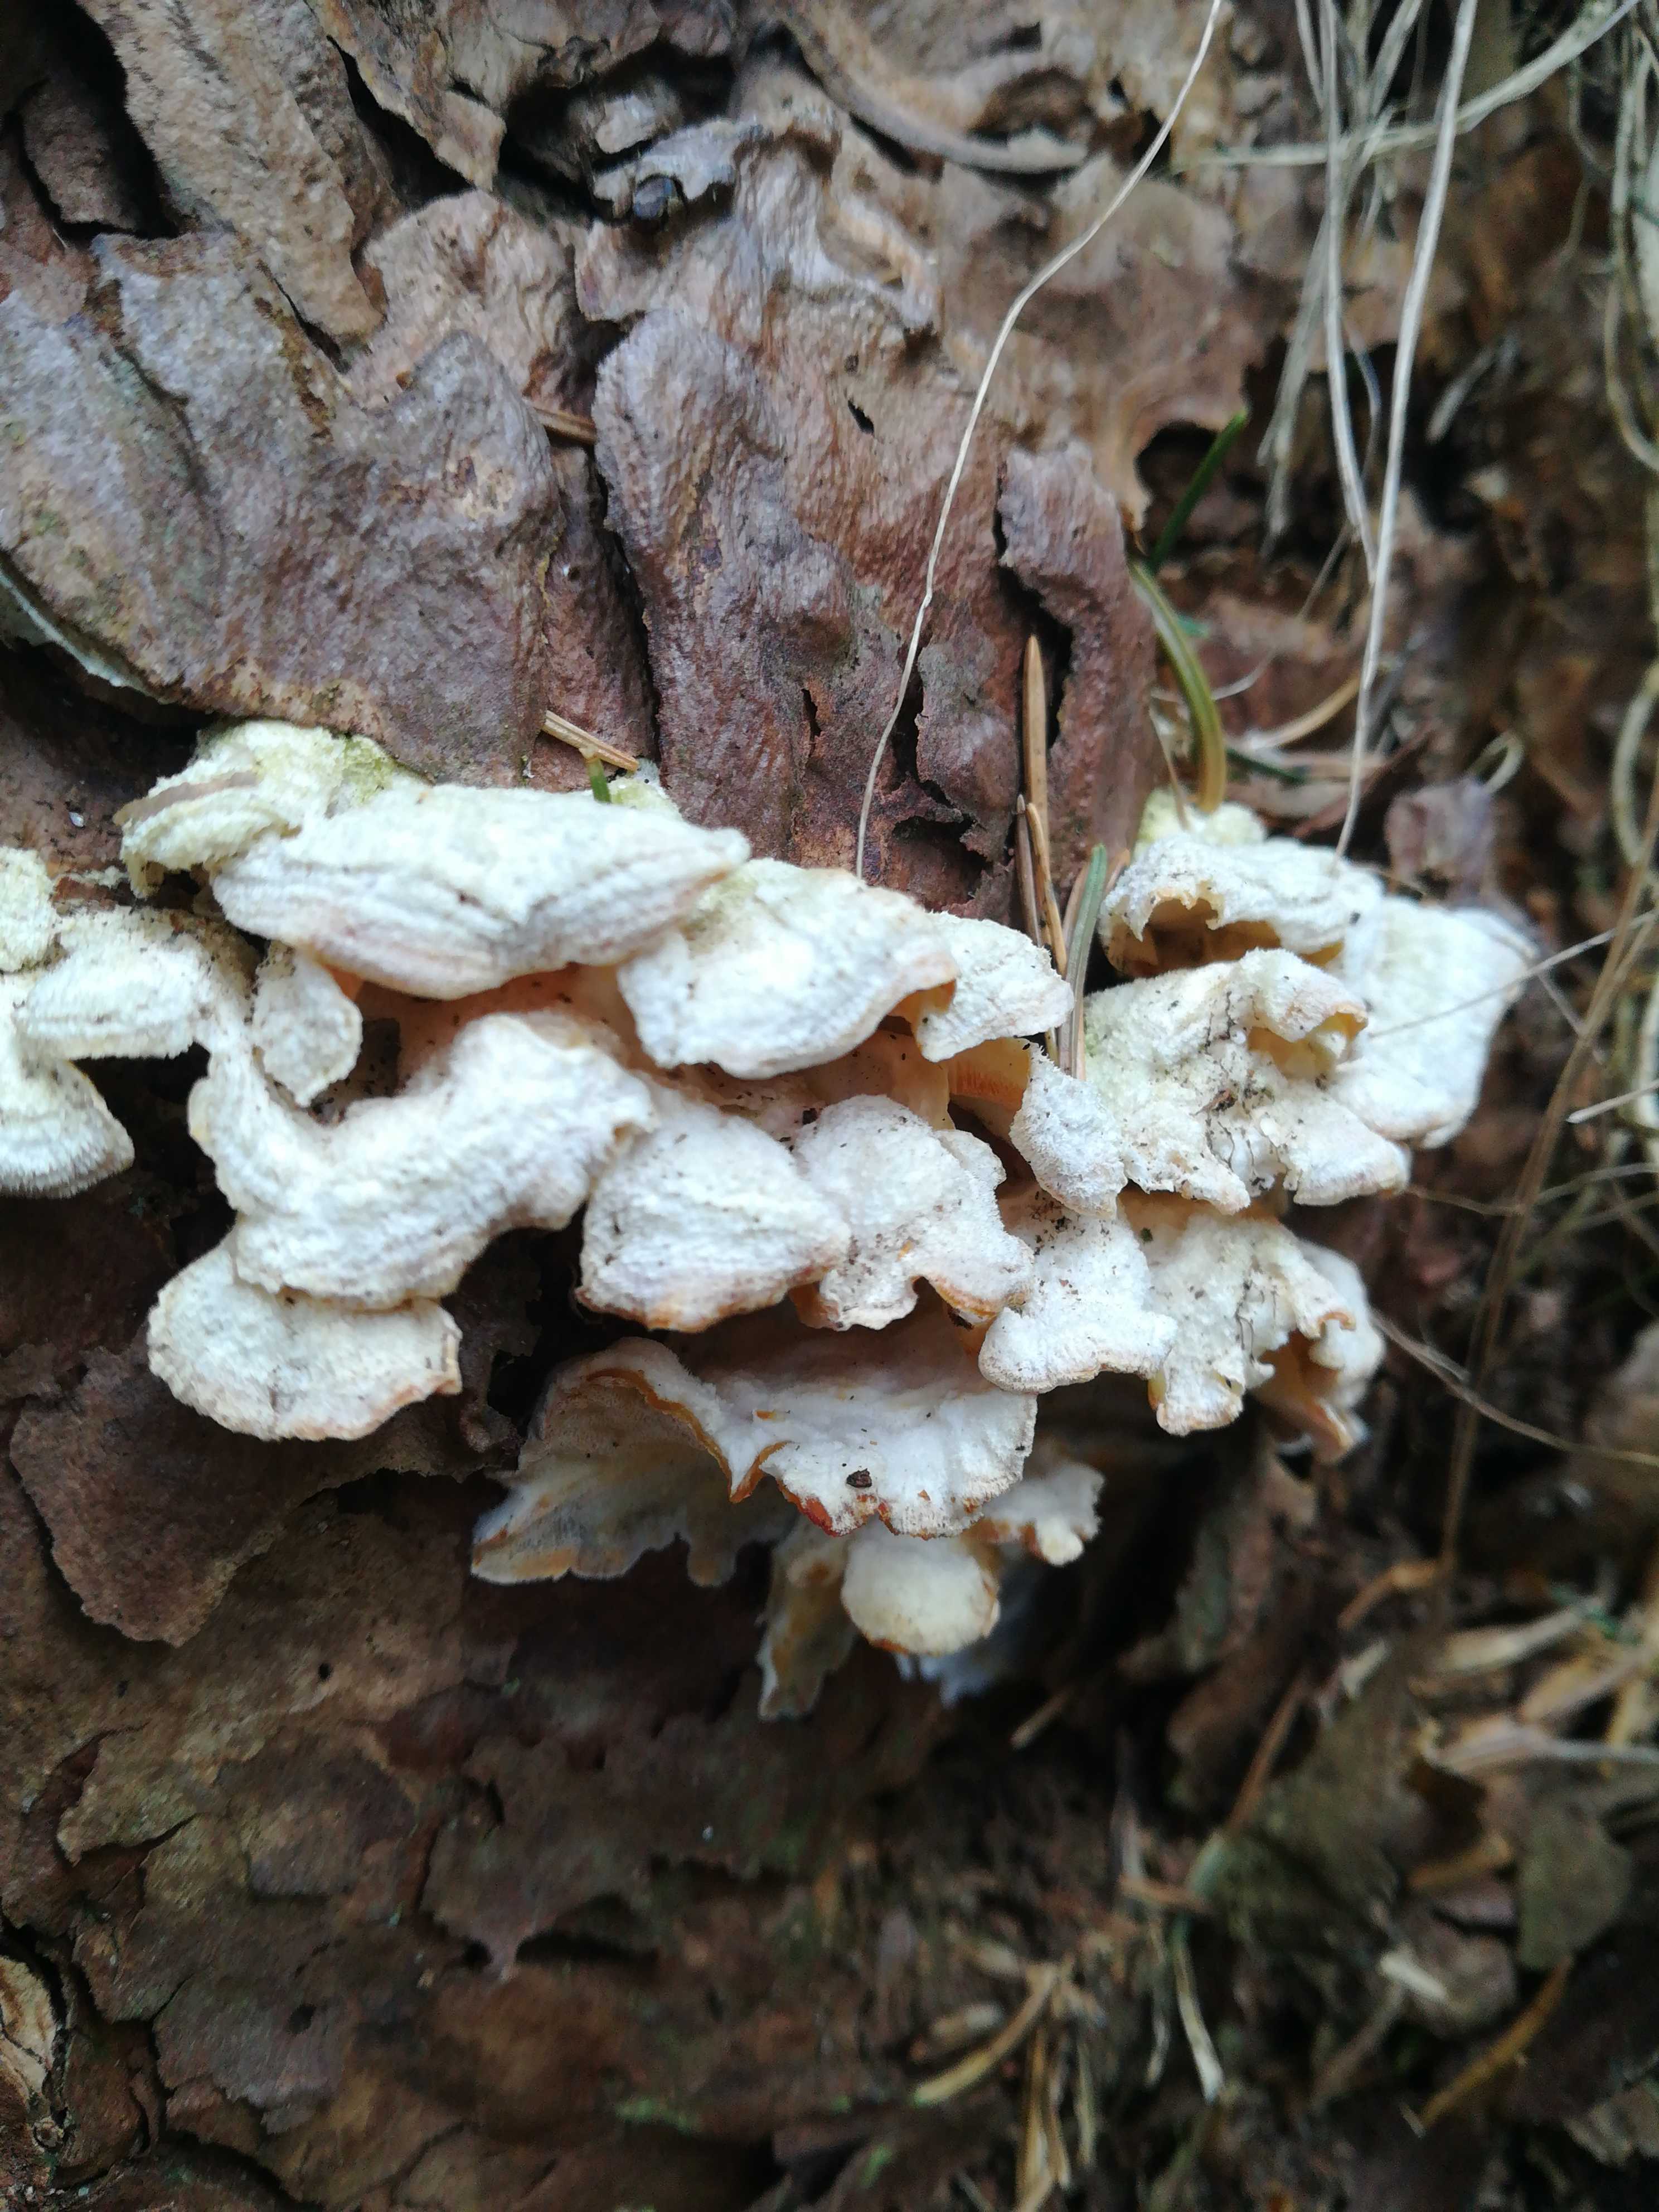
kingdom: Fungi
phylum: Basidiomycota
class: Agaricomycetes
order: Polyporales
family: Incrustoporiaceae
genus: Skeletocutis
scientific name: Skeletocutis amorpha
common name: orange krystalporesvamp
